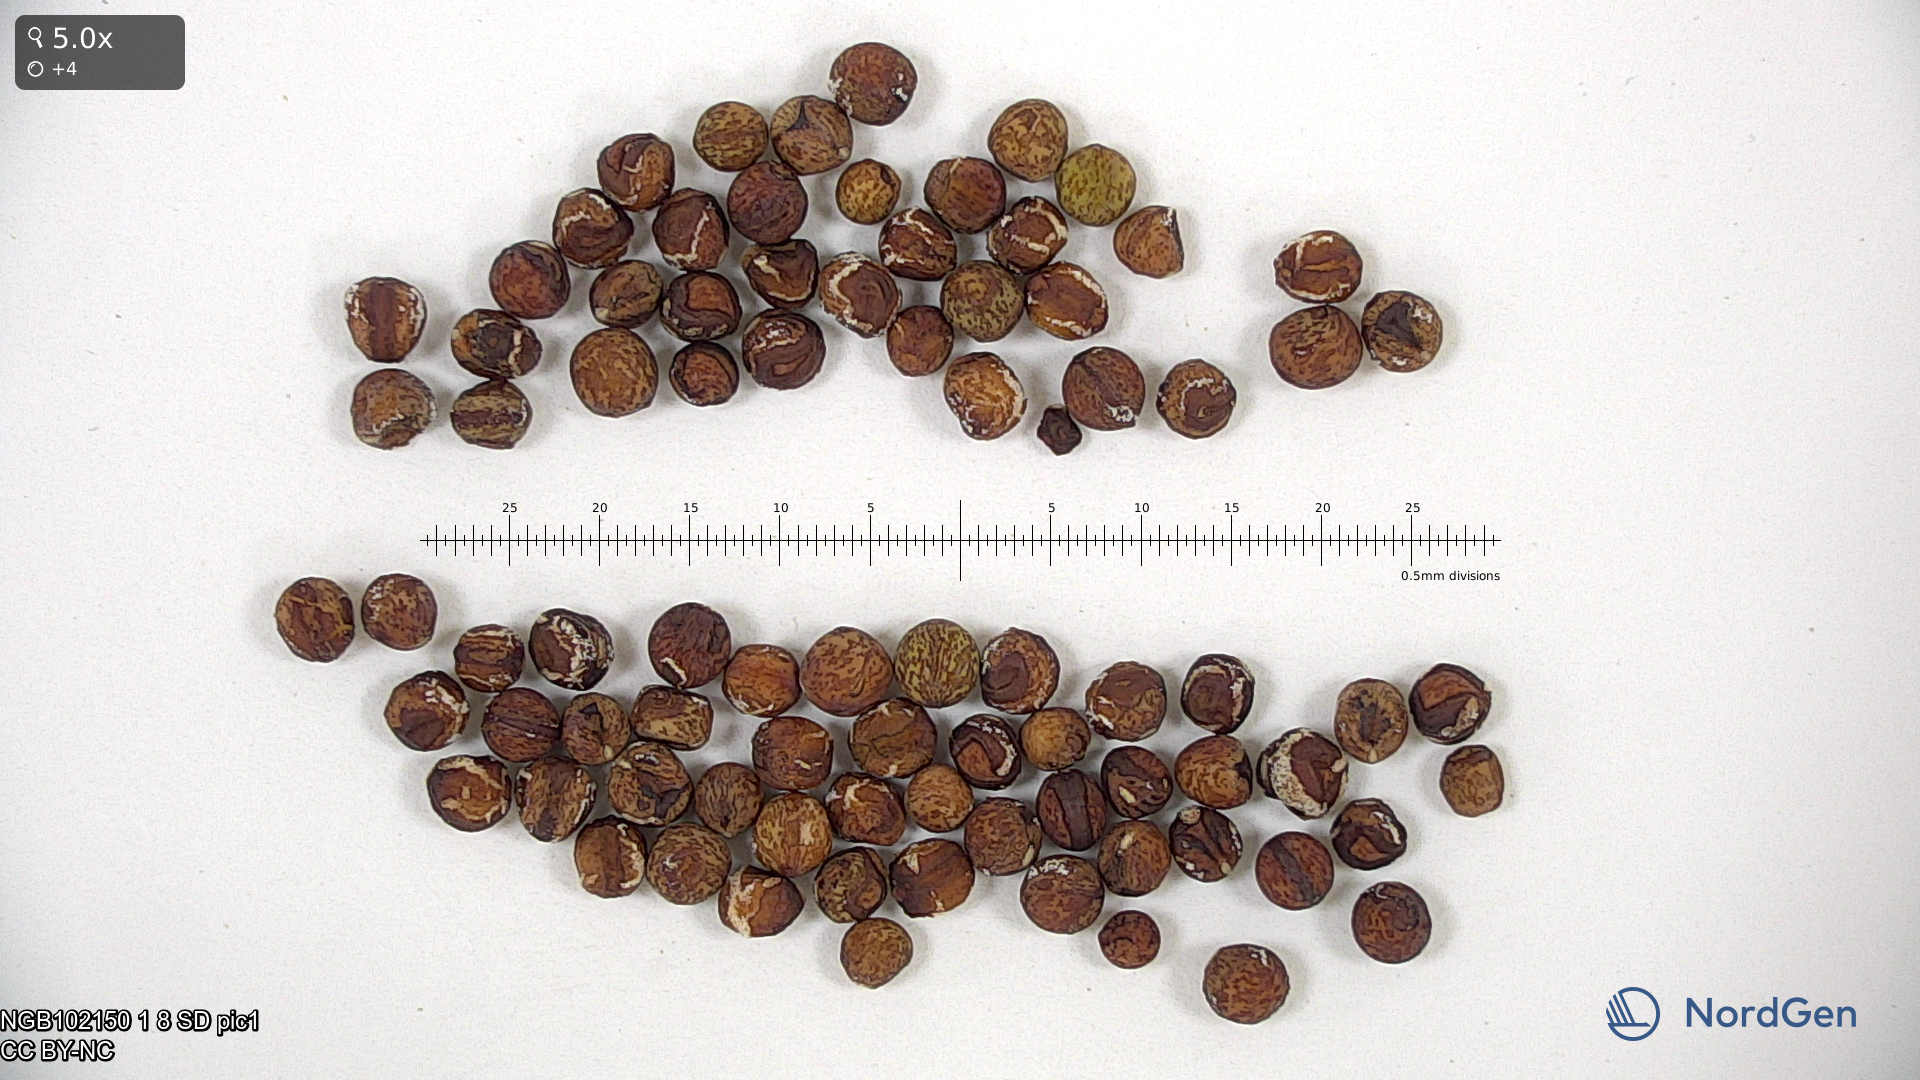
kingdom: Plantae
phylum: Tracheophyta
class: Magnoliopsida
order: Fabales
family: Fabaceae
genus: Lathyrus
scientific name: Lathyrus oleraceus
